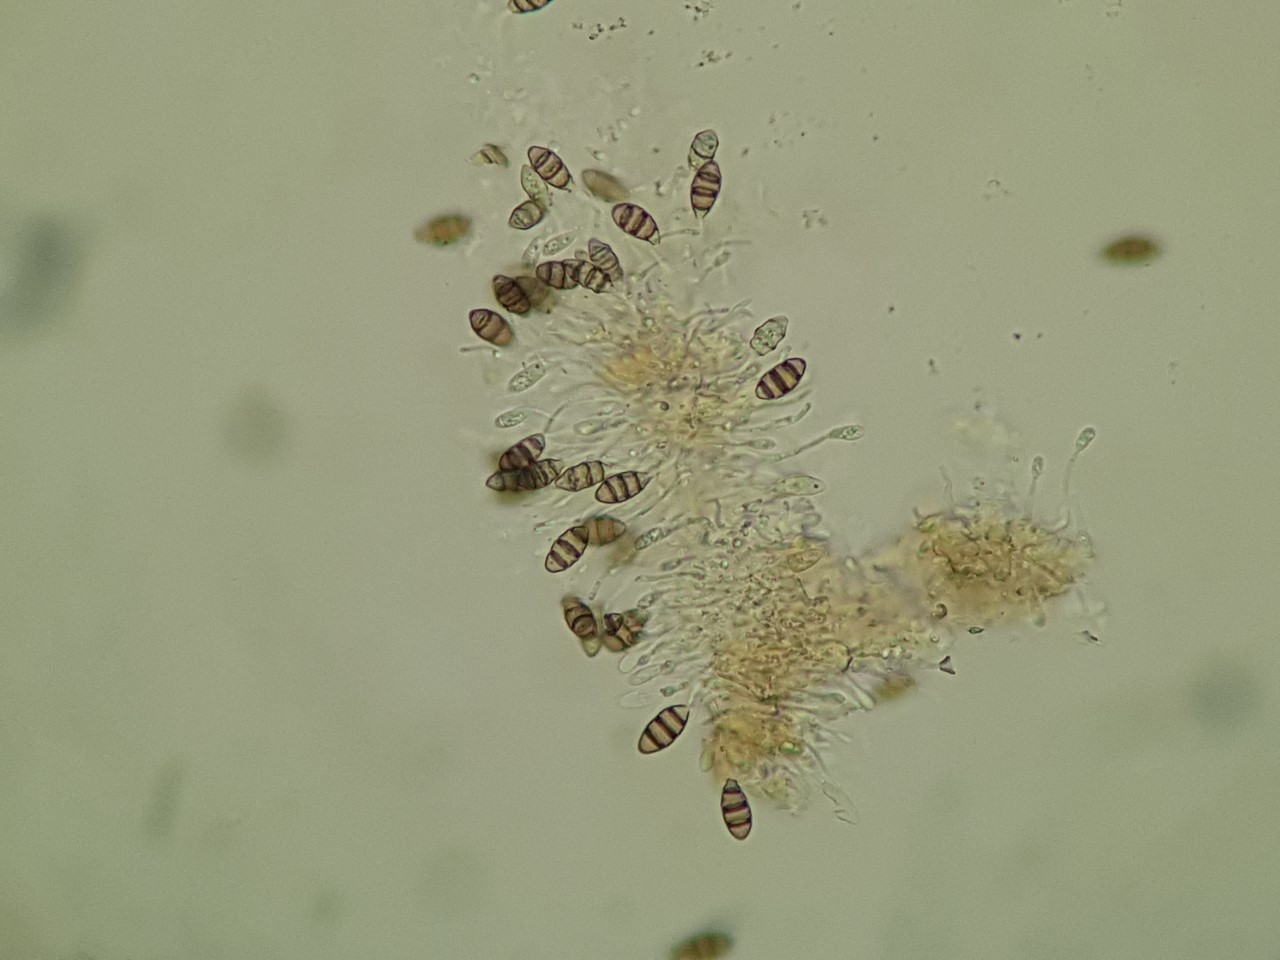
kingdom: Fungi
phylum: Ascomycota
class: Sordariomycetes
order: Amphisphaeriales
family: Sporocadaceae
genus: Sporocadus
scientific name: Sporocadus rosarum
